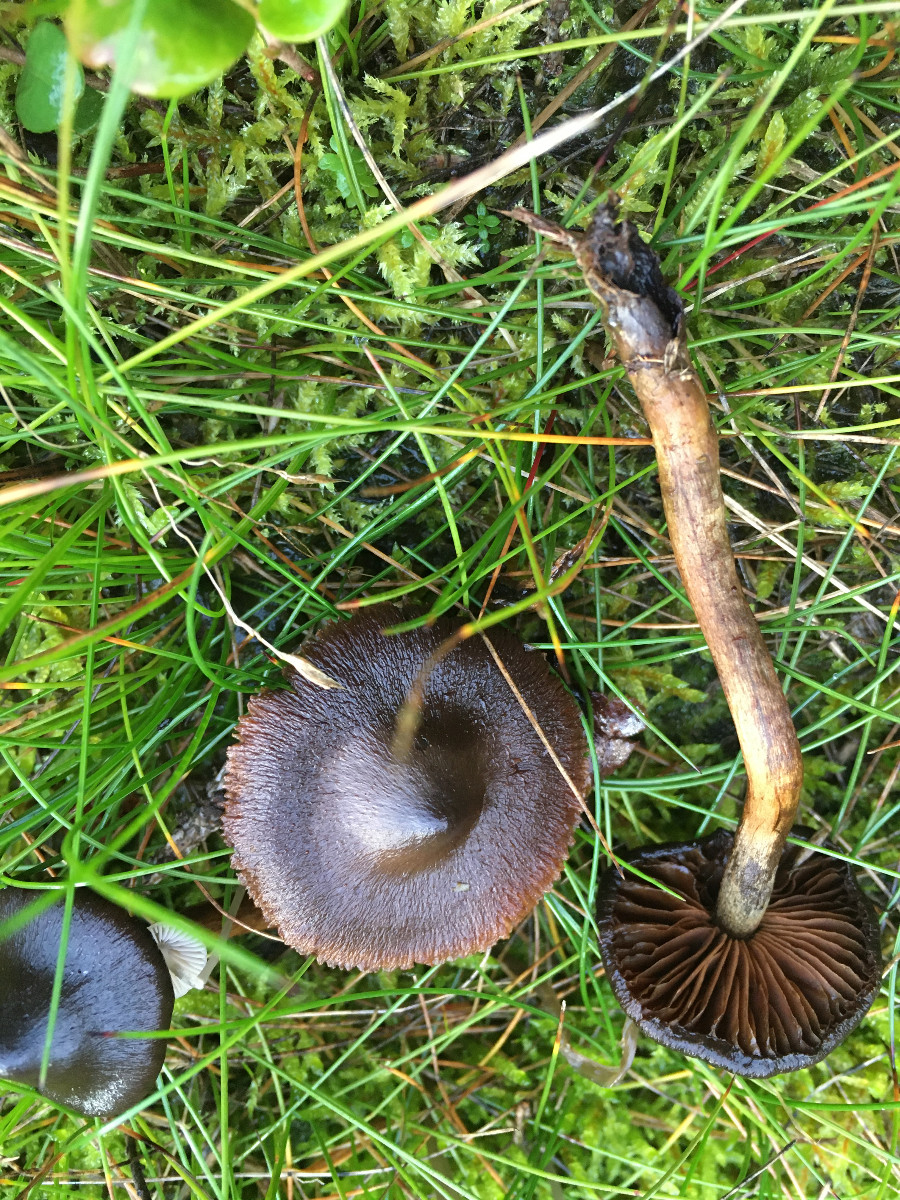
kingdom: Fungi
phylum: Basidiomycota
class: Agaricomycetes
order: Agaricales
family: Cortinariaceae
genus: Cortinarius
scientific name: Cortinarius
